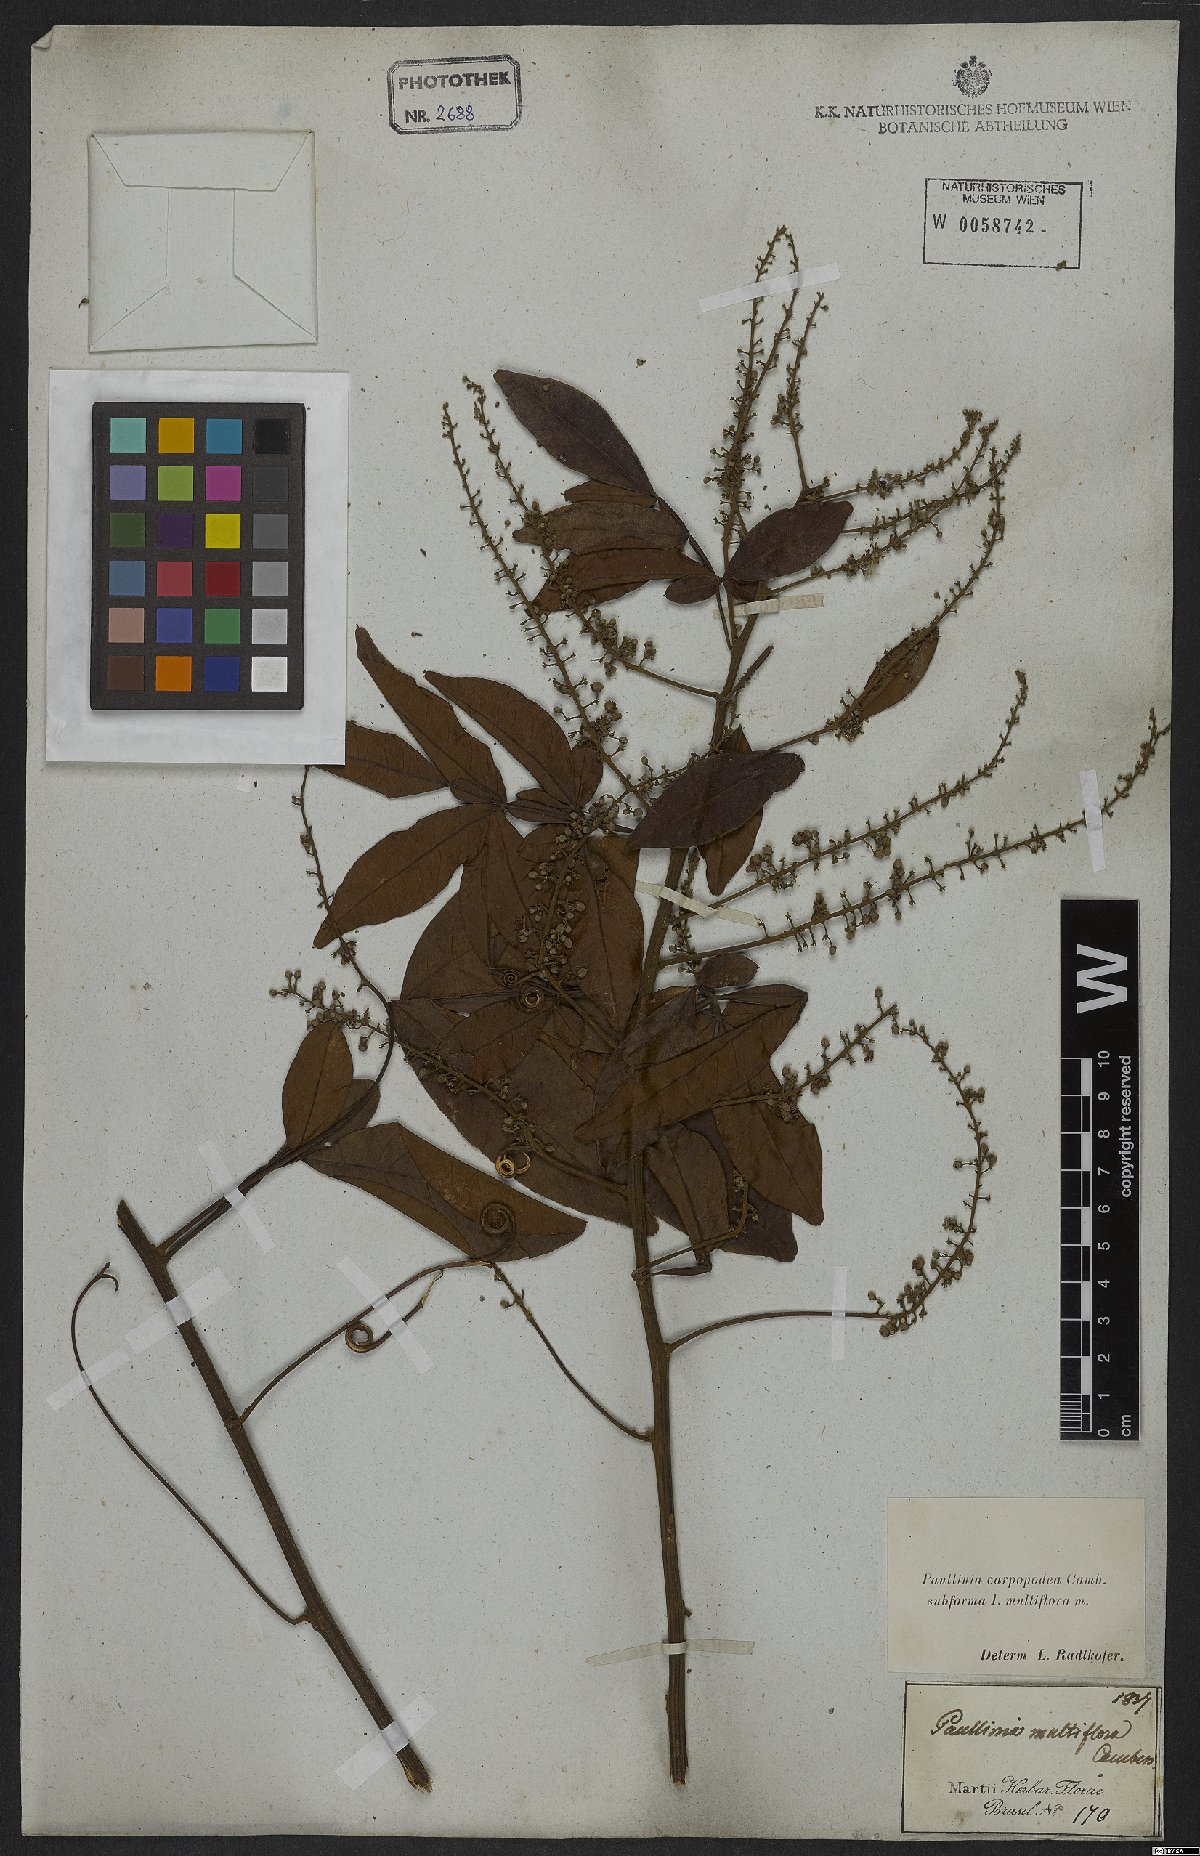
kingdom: Plantae
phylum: Tracheophyta
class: Magnoliopsida
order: Sapindales
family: Sapindaceae
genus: Paullinia
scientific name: Paullinia carpopoda
